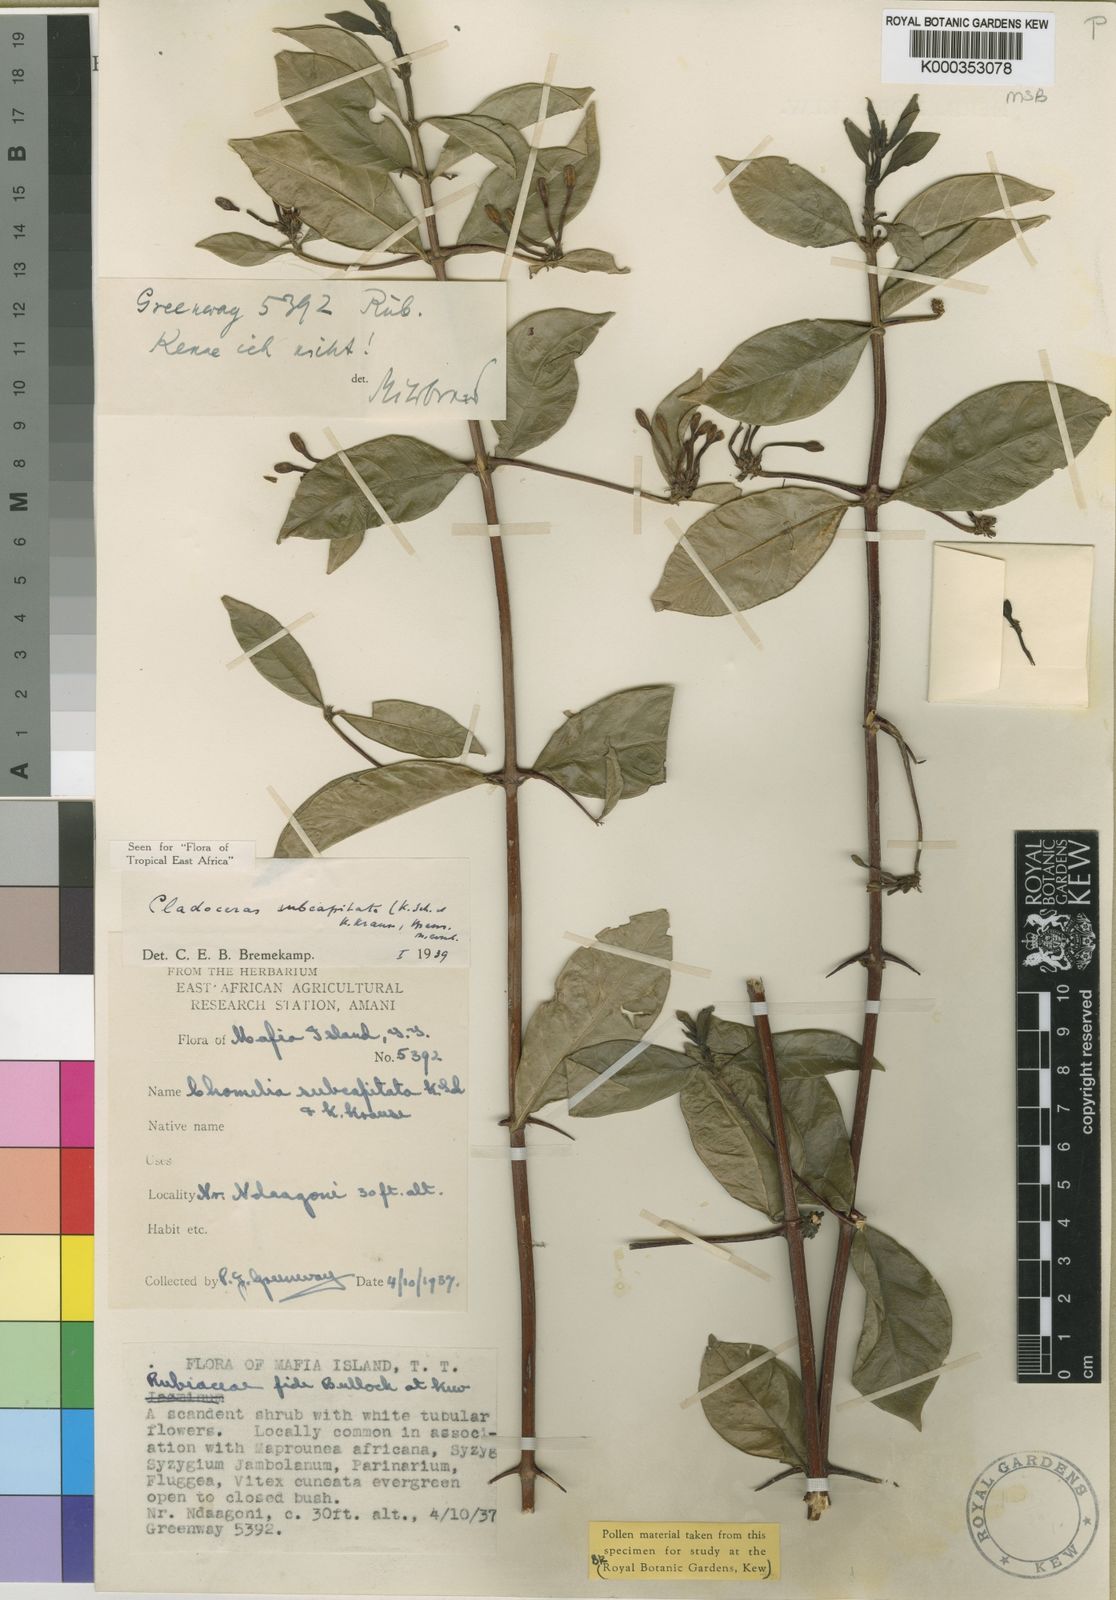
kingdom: Plantae
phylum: Tracheophyta
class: Magnoliopsida
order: Gentianales
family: Rubiaceae
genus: Cladoceras
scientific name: Cladoceras subcapitatum
